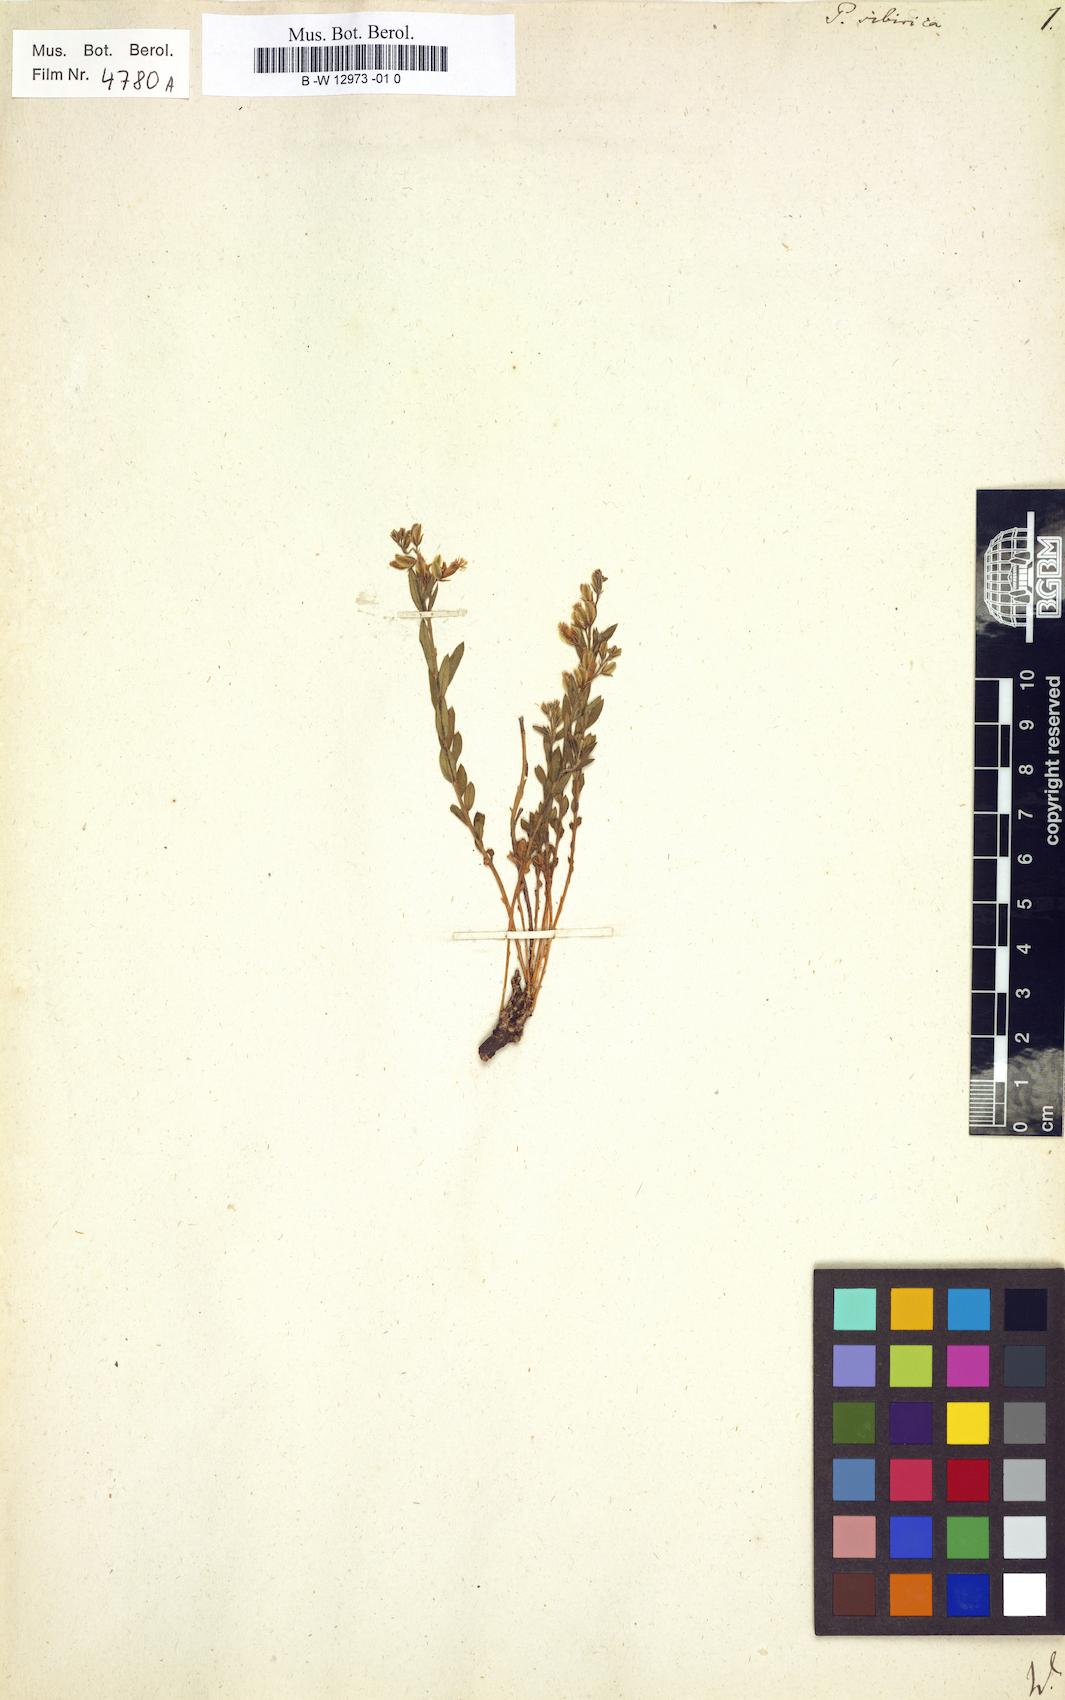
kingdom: Plantae
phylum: Tracheophyta
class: Magnoliopsida
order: Fabales
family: Polygalaceae
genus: Polygala
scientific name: Polygala sibirica
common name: Siberian polygala
